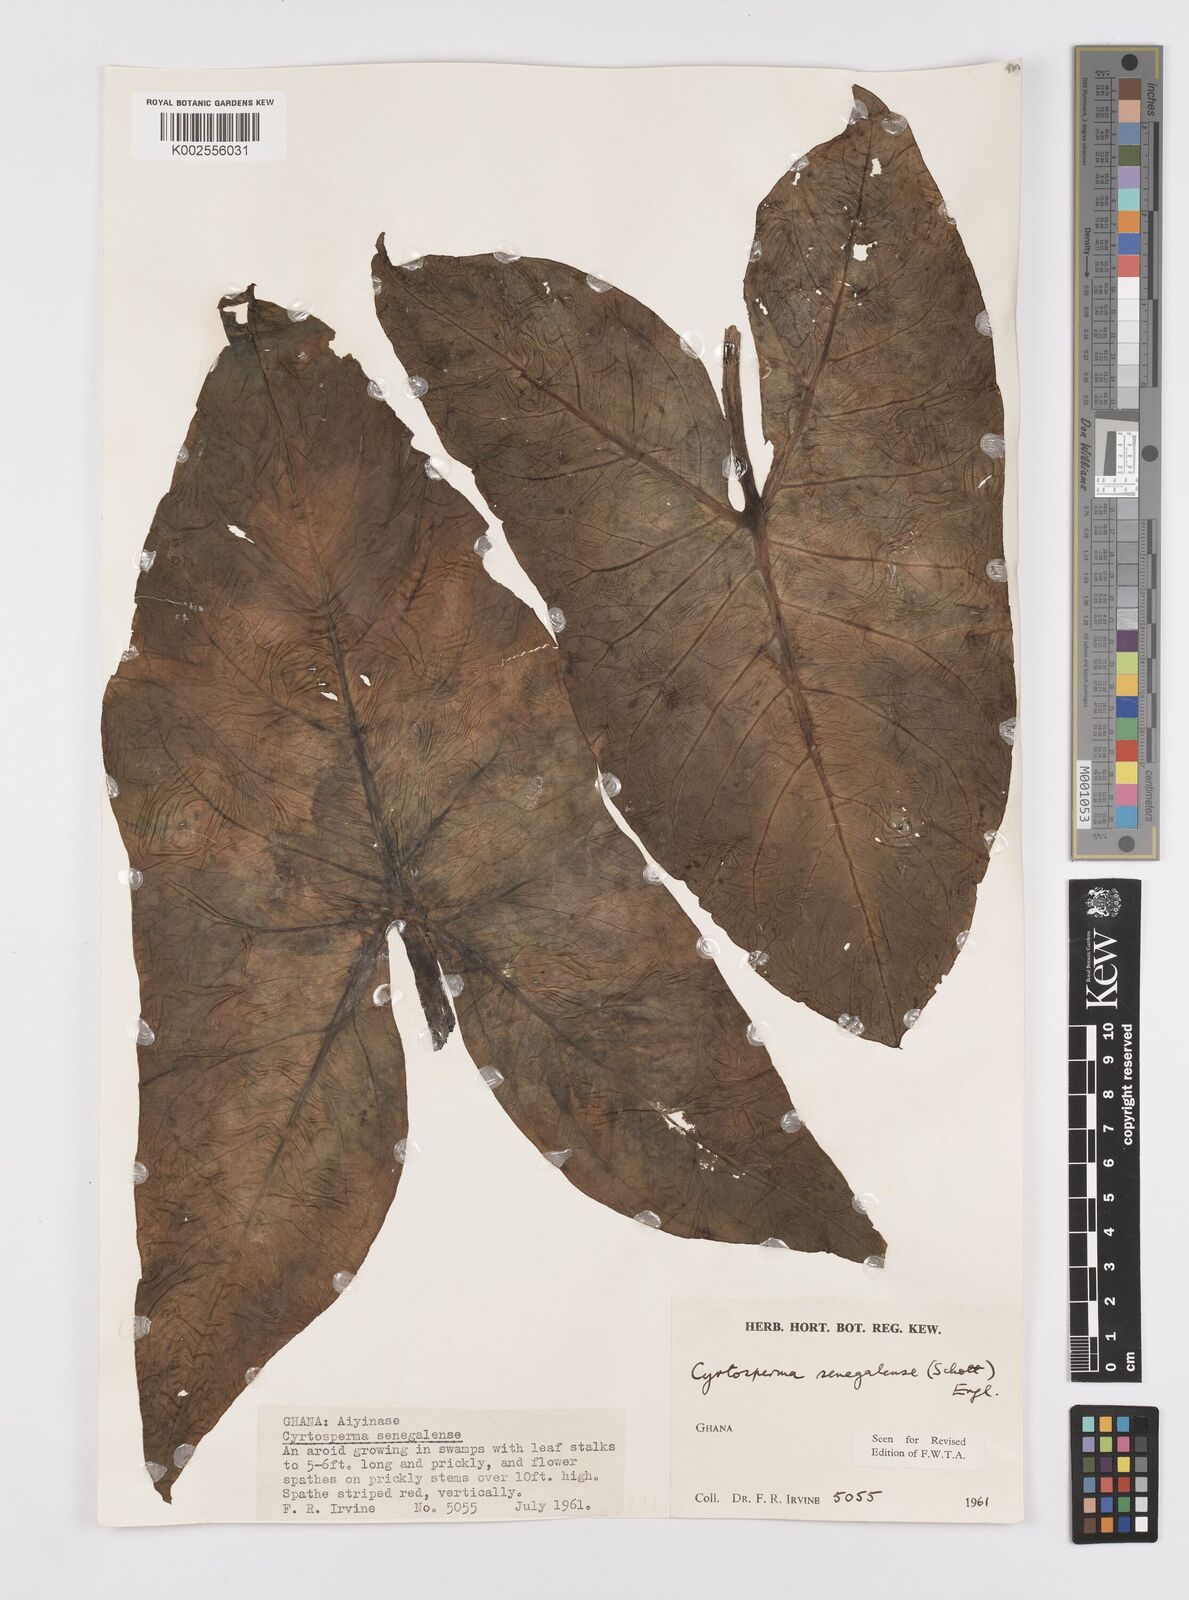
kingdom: Plantae
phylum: Tracheophyta
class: Liliopsida
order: Alismatales
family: Araceae
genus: Lasimorpha
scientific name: Lasimorpha senegalensis
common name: Swamp arum
